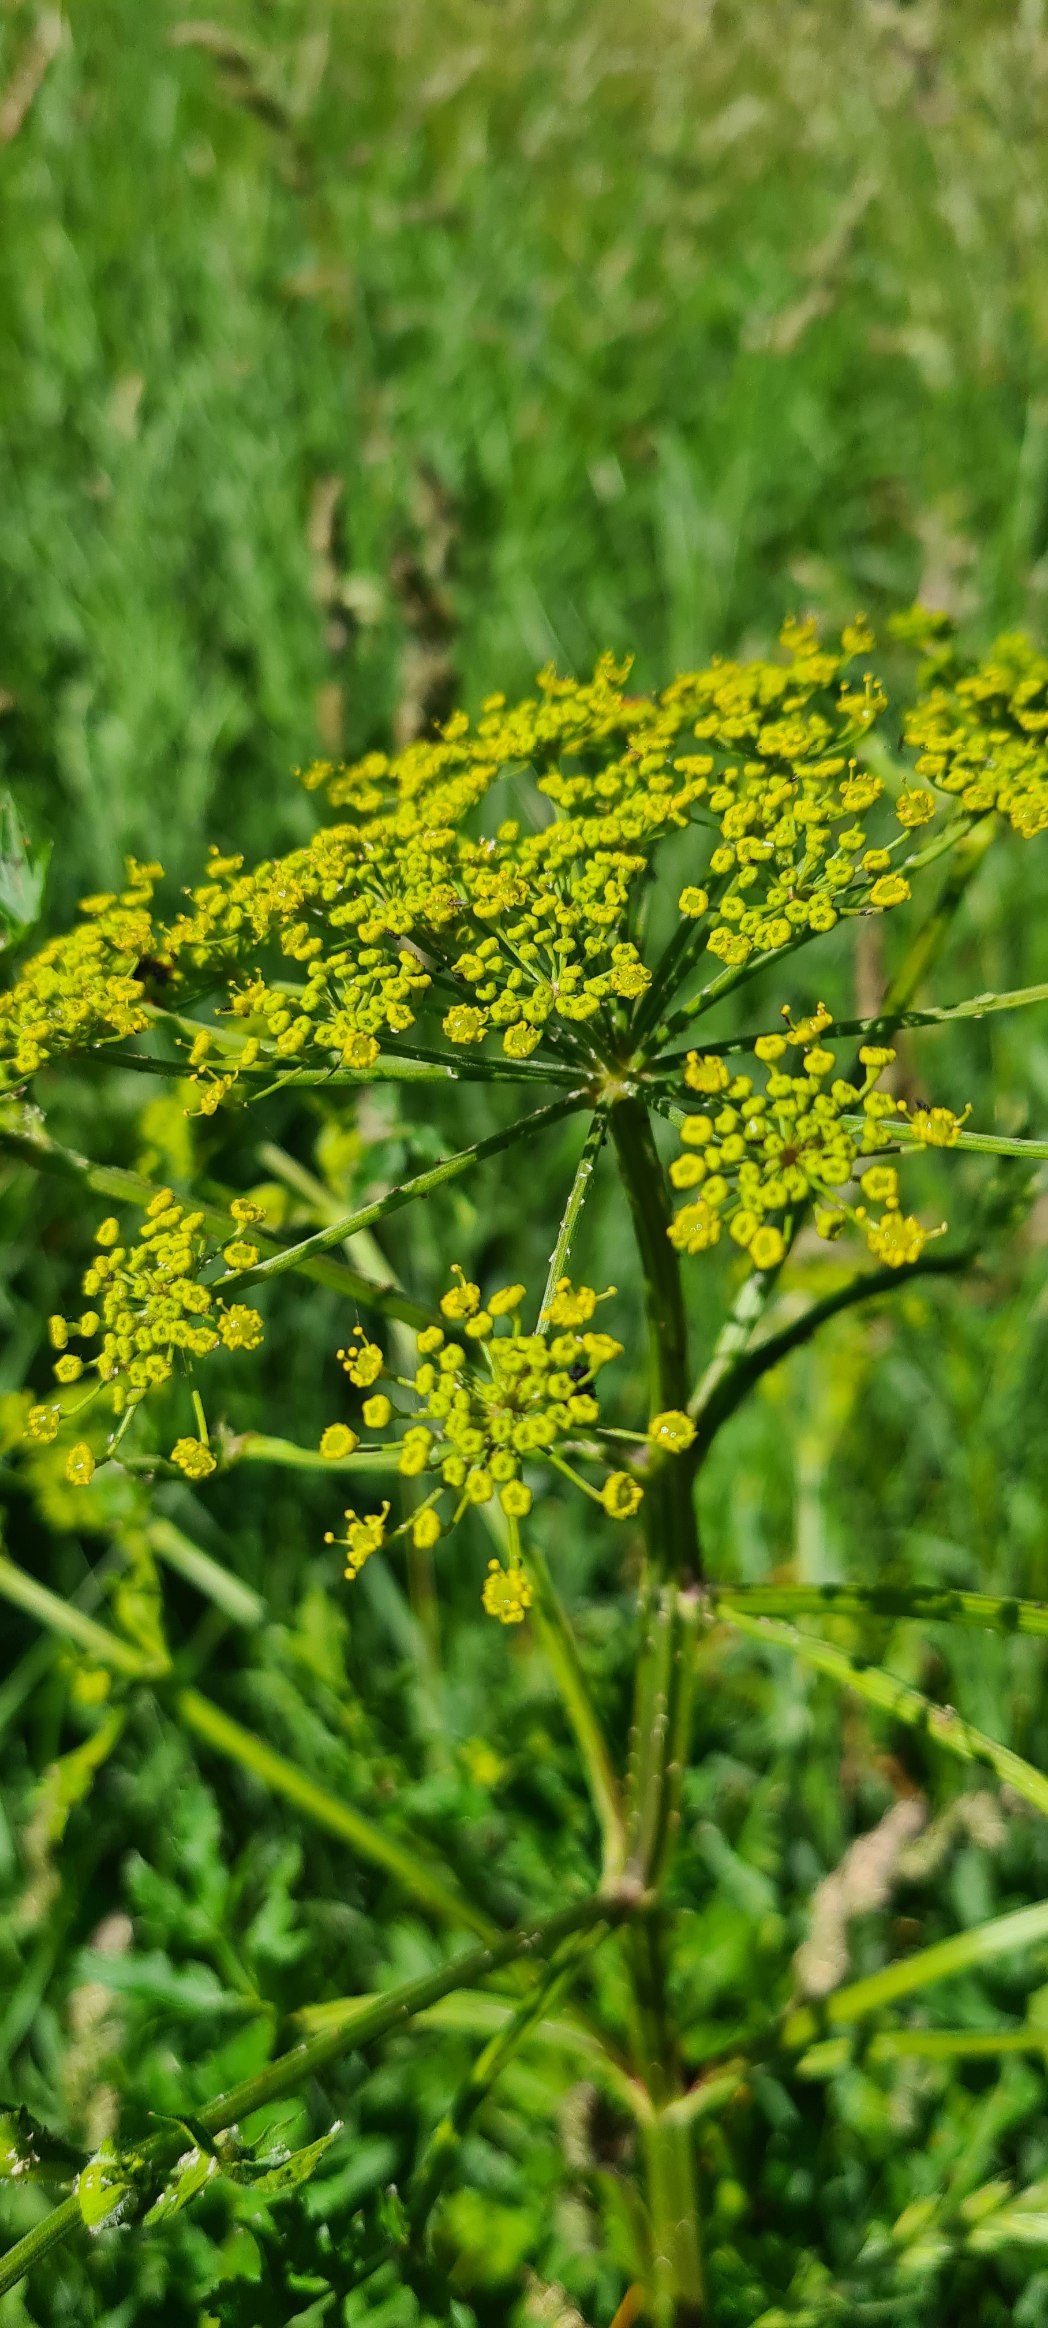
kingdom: Plantae
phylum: Tracheophyta
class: Magnoliopsida
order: Apiales
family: Apiaceae
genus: Pastinaca
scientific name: Pastinaca sativa
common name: Pastinak
